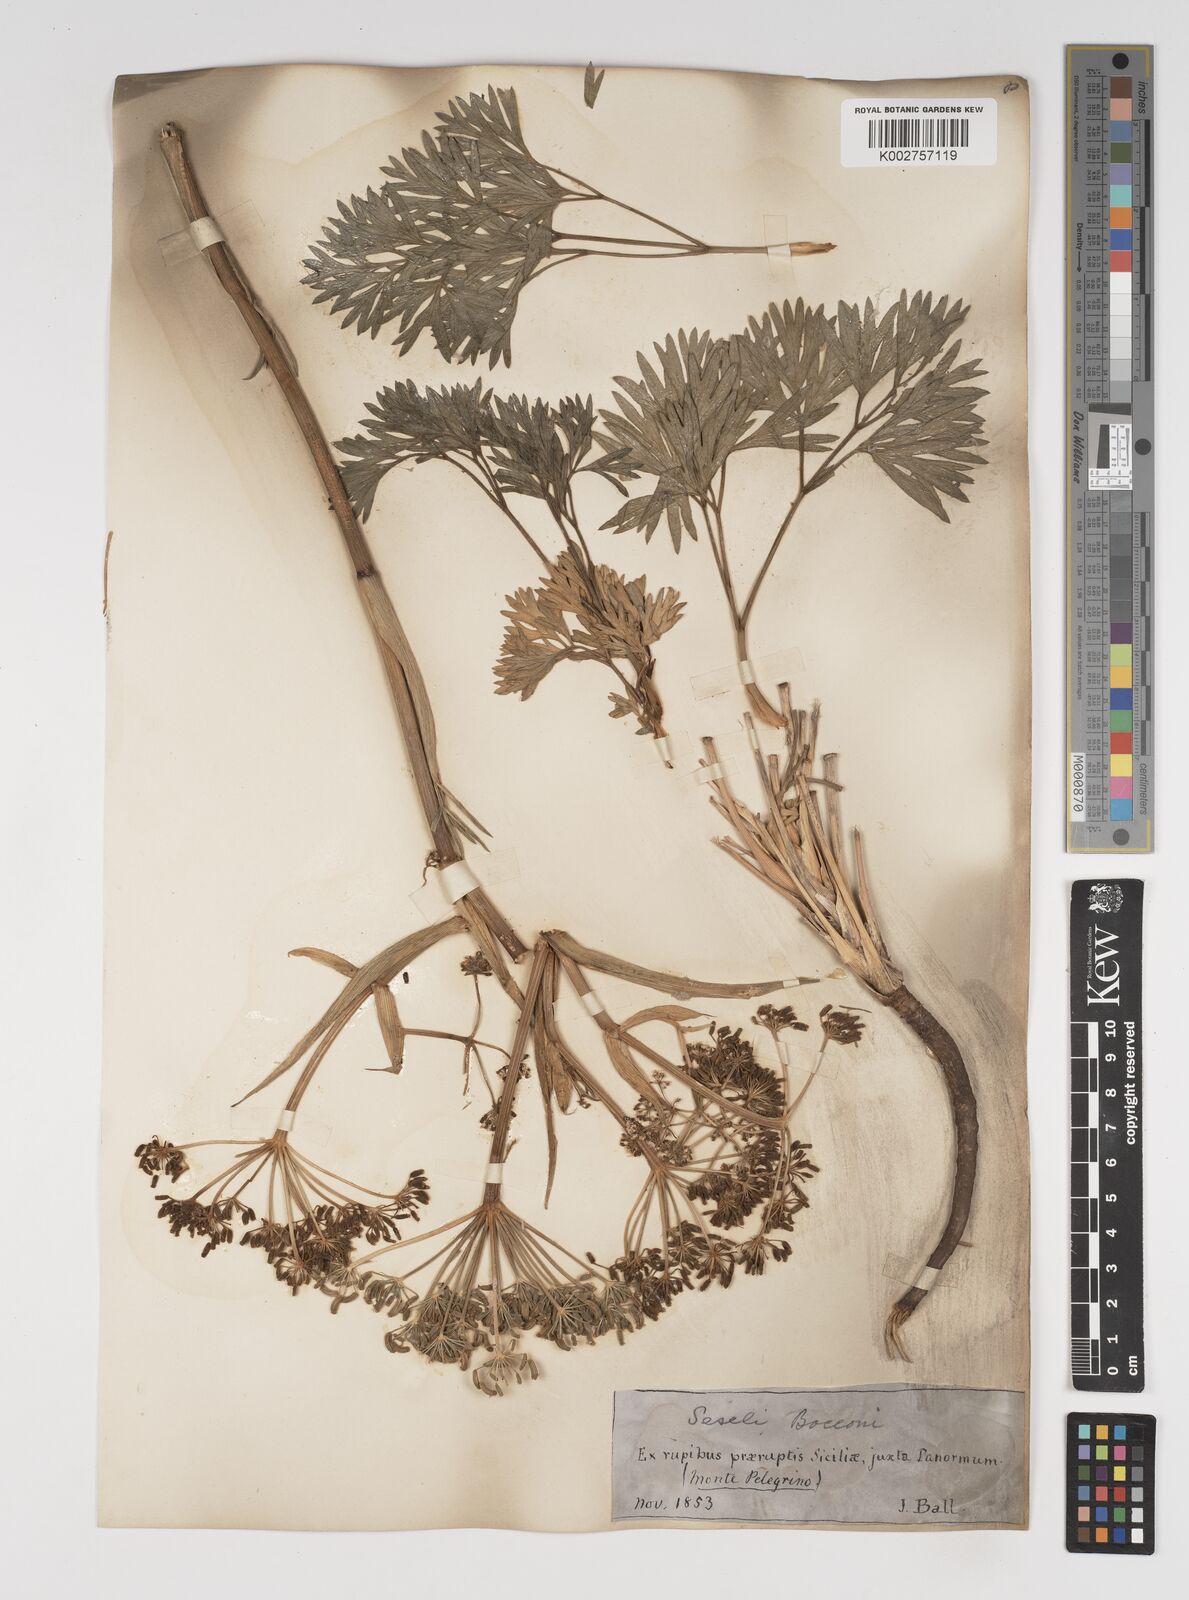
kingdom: Plantae
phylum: Tracheophyta
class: Magnoliopsida
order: Apiales
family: Apiaceae
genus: Seseli
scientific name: Seseli bocconei
